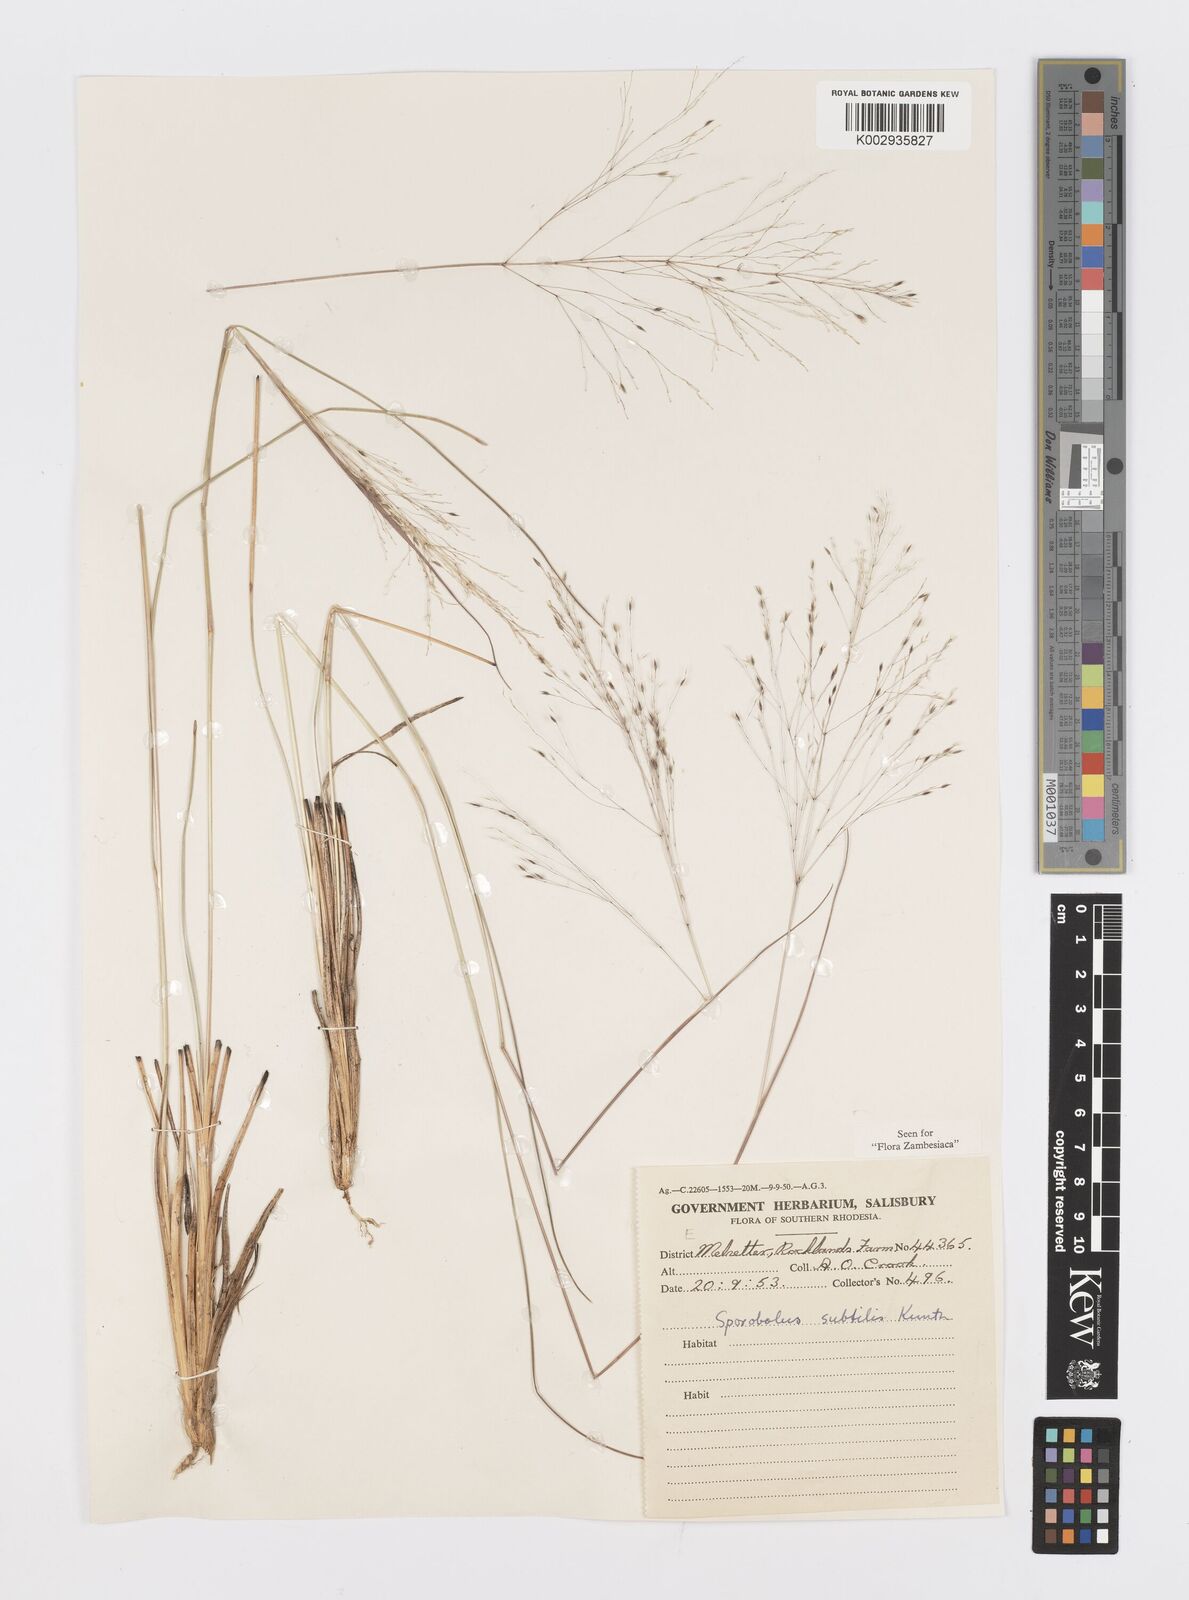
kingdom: Plantae
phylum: Tracheophyta
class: Liliopsida
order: Poales
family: Poaceae
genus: Sporobolus
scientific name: Sporobolus subtilis
